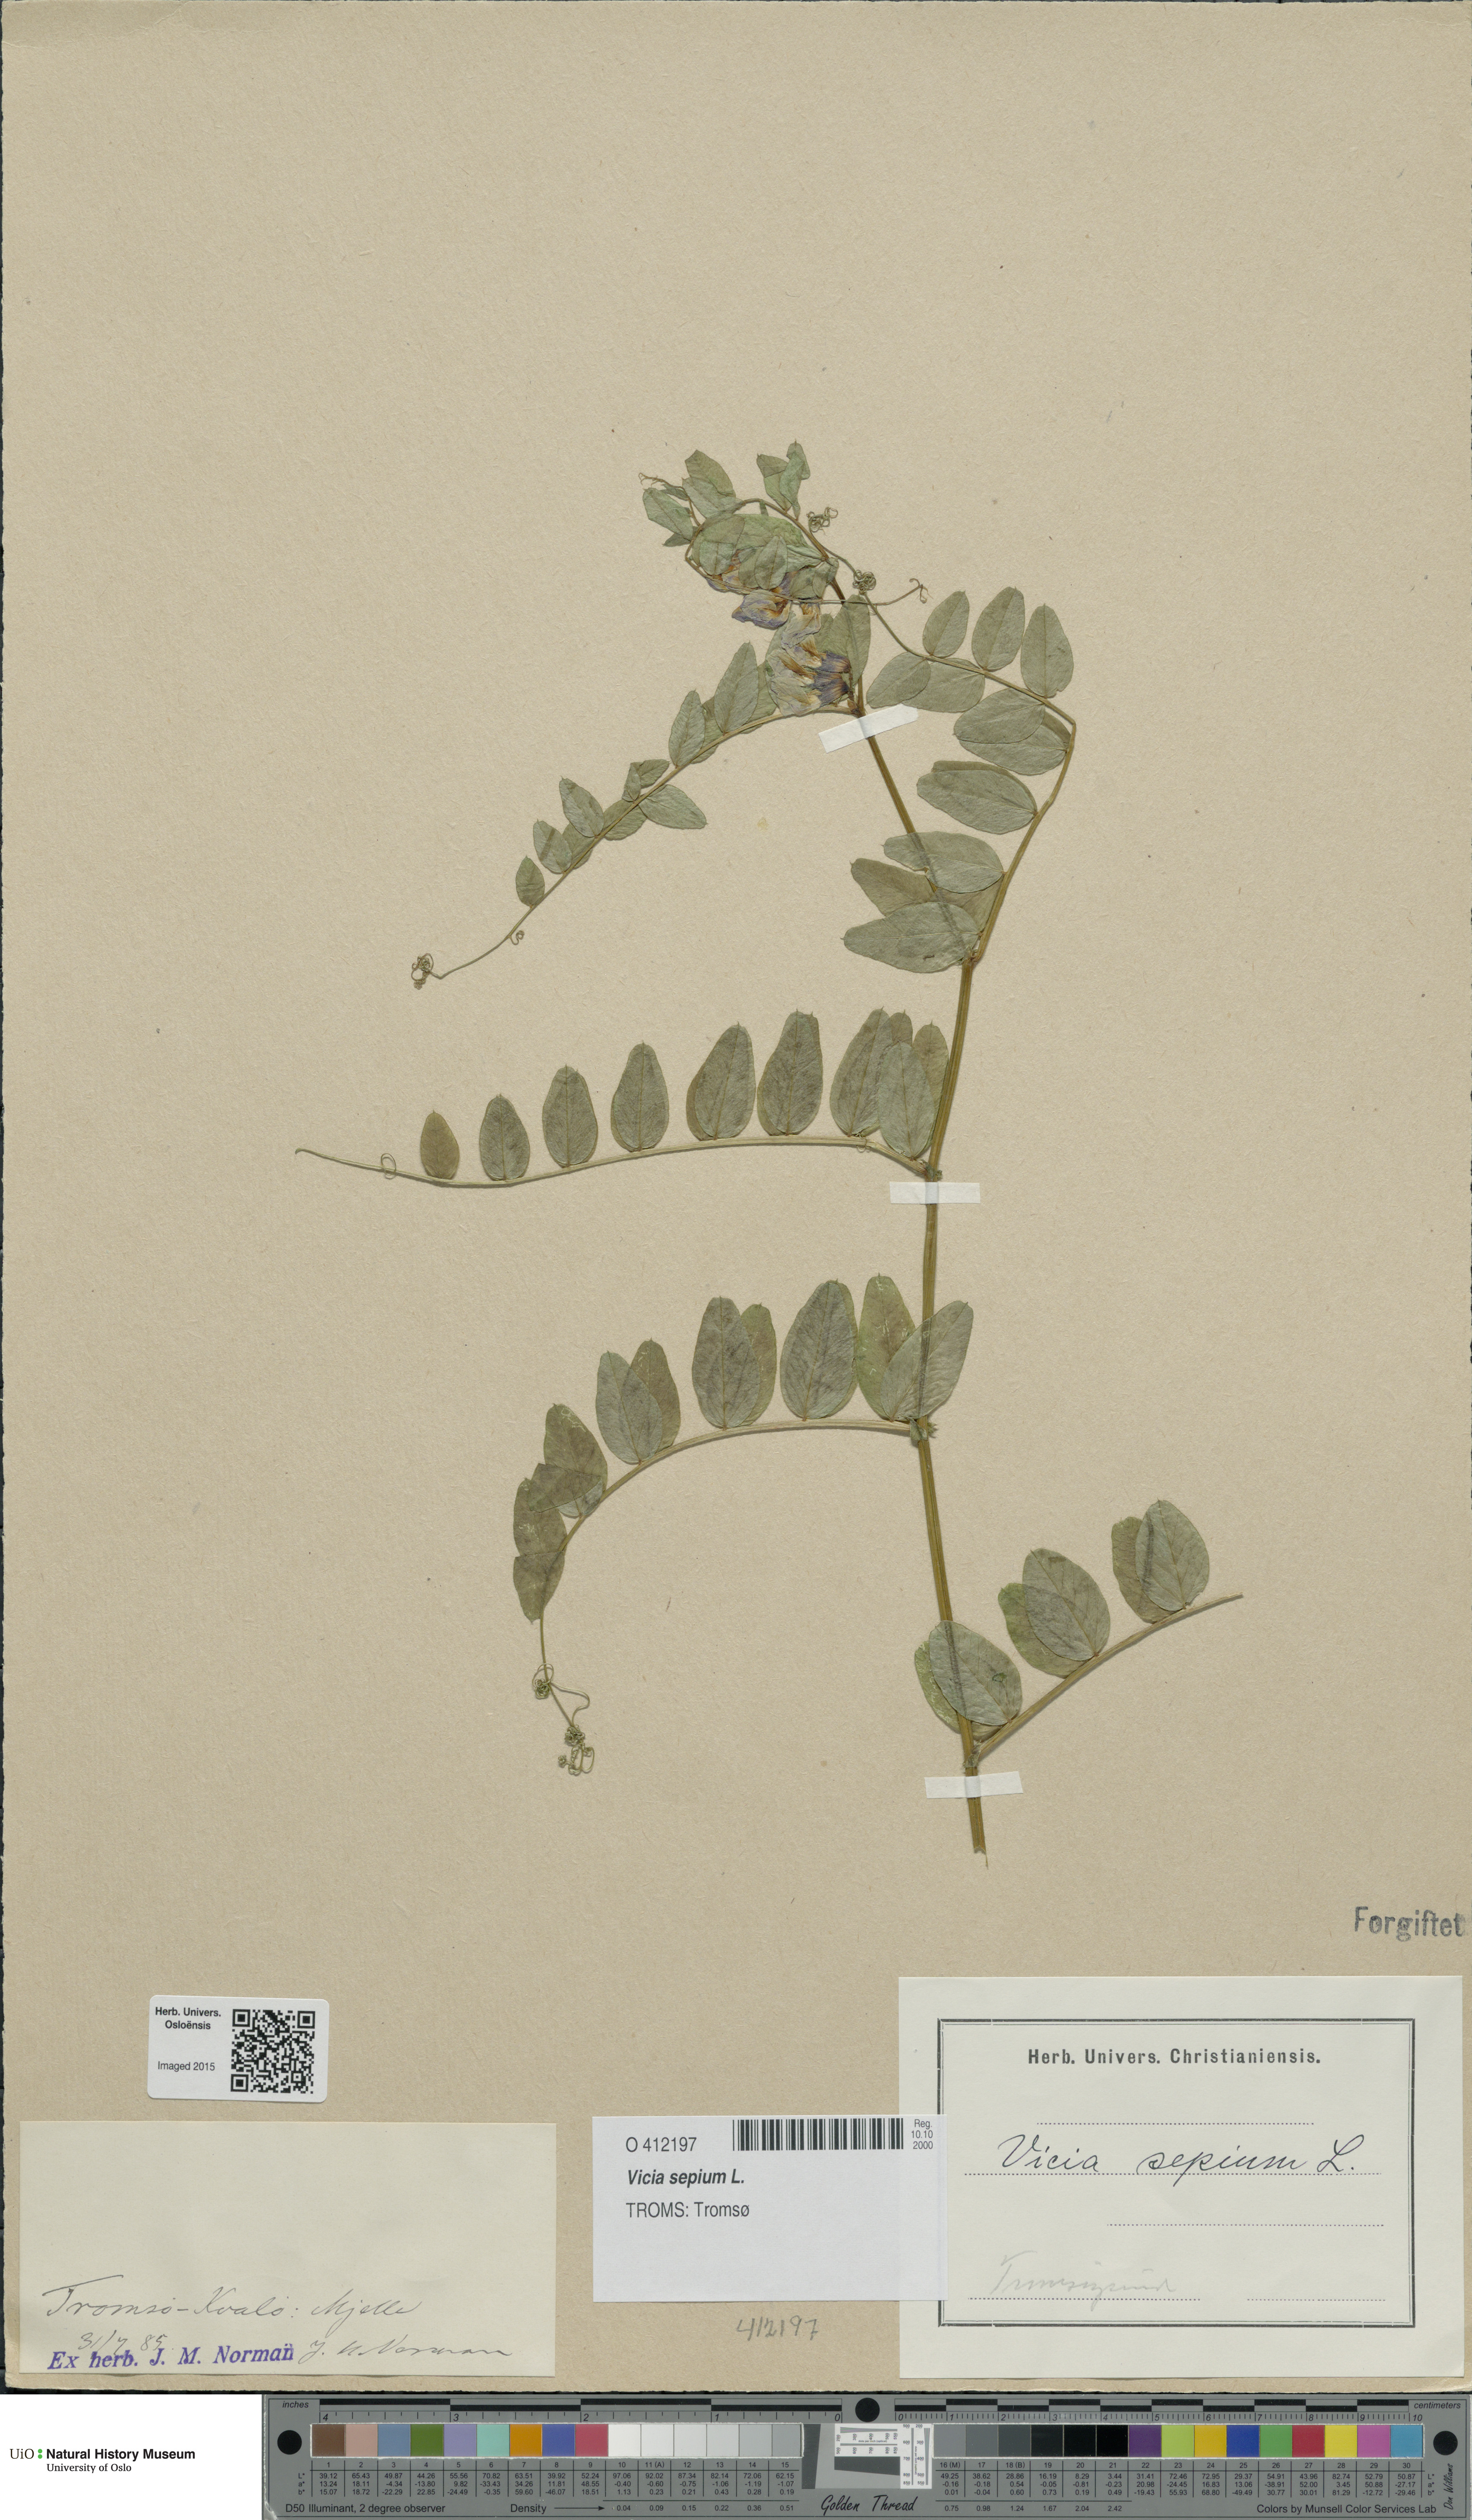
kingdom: Plantae
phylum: Tracheophyta
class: Magnoliopsida
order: Fabales
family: Fabaceae
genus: Vicia
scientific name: Vicia sepium
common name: Bush vetch
